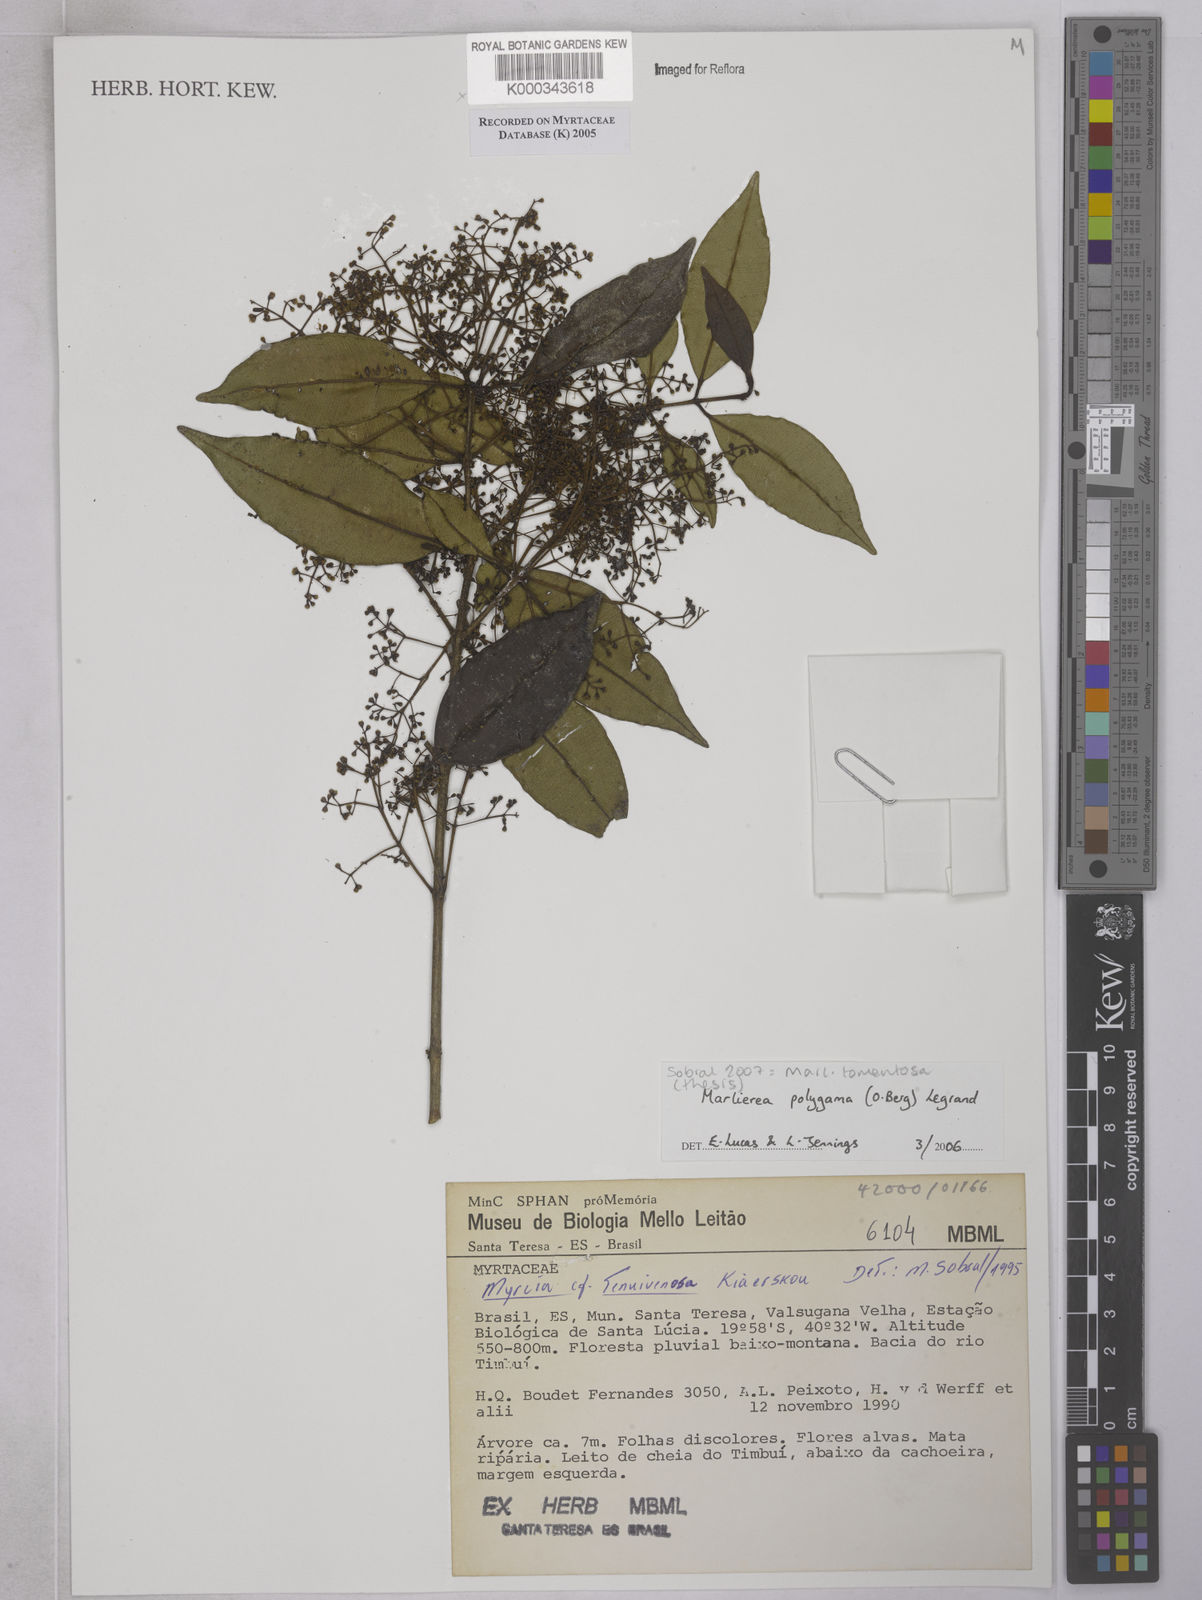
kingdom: Plantae
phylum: Tracheophyta
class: Magnoliopsida
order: Myrtales
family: Myrtaceae
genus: Marlierea
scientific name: Marlierea
